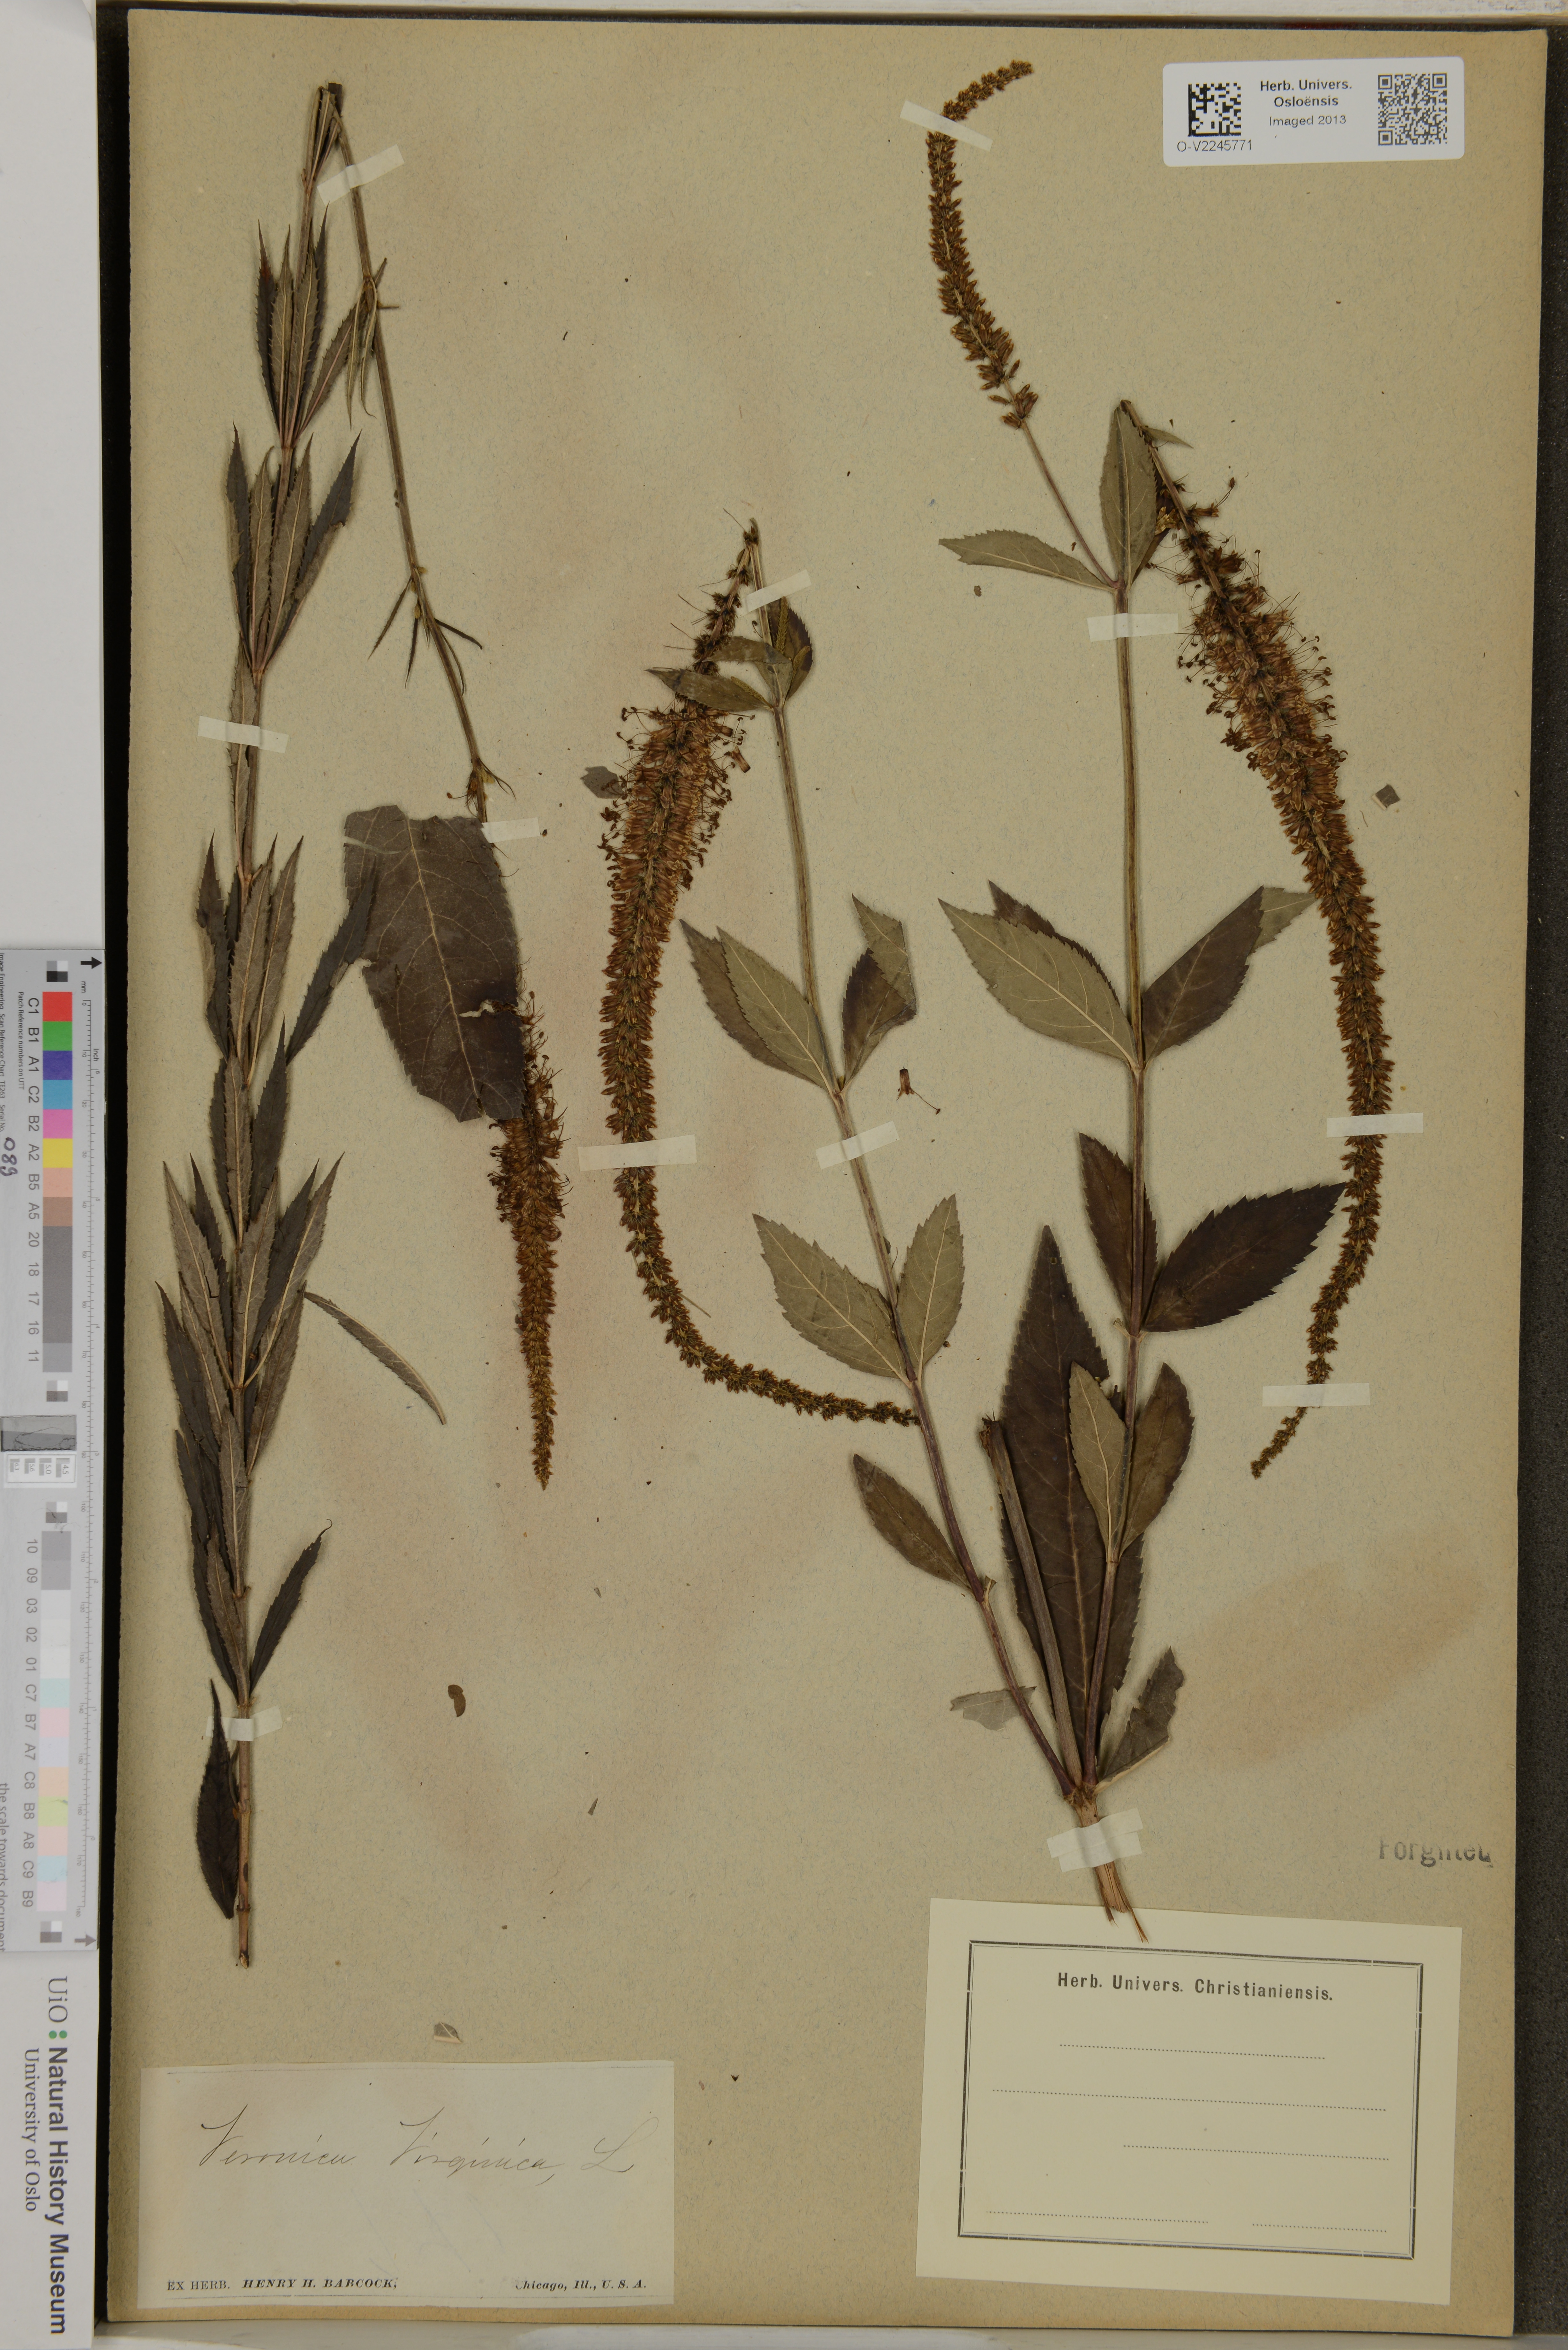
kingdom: Plantae
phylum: Tracheophyta
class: Magnoliopsida
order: Lamiales
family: Plantaginaceae
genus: Veronicastrum
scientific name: Veronicastrum virginicum
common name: Blackroot
